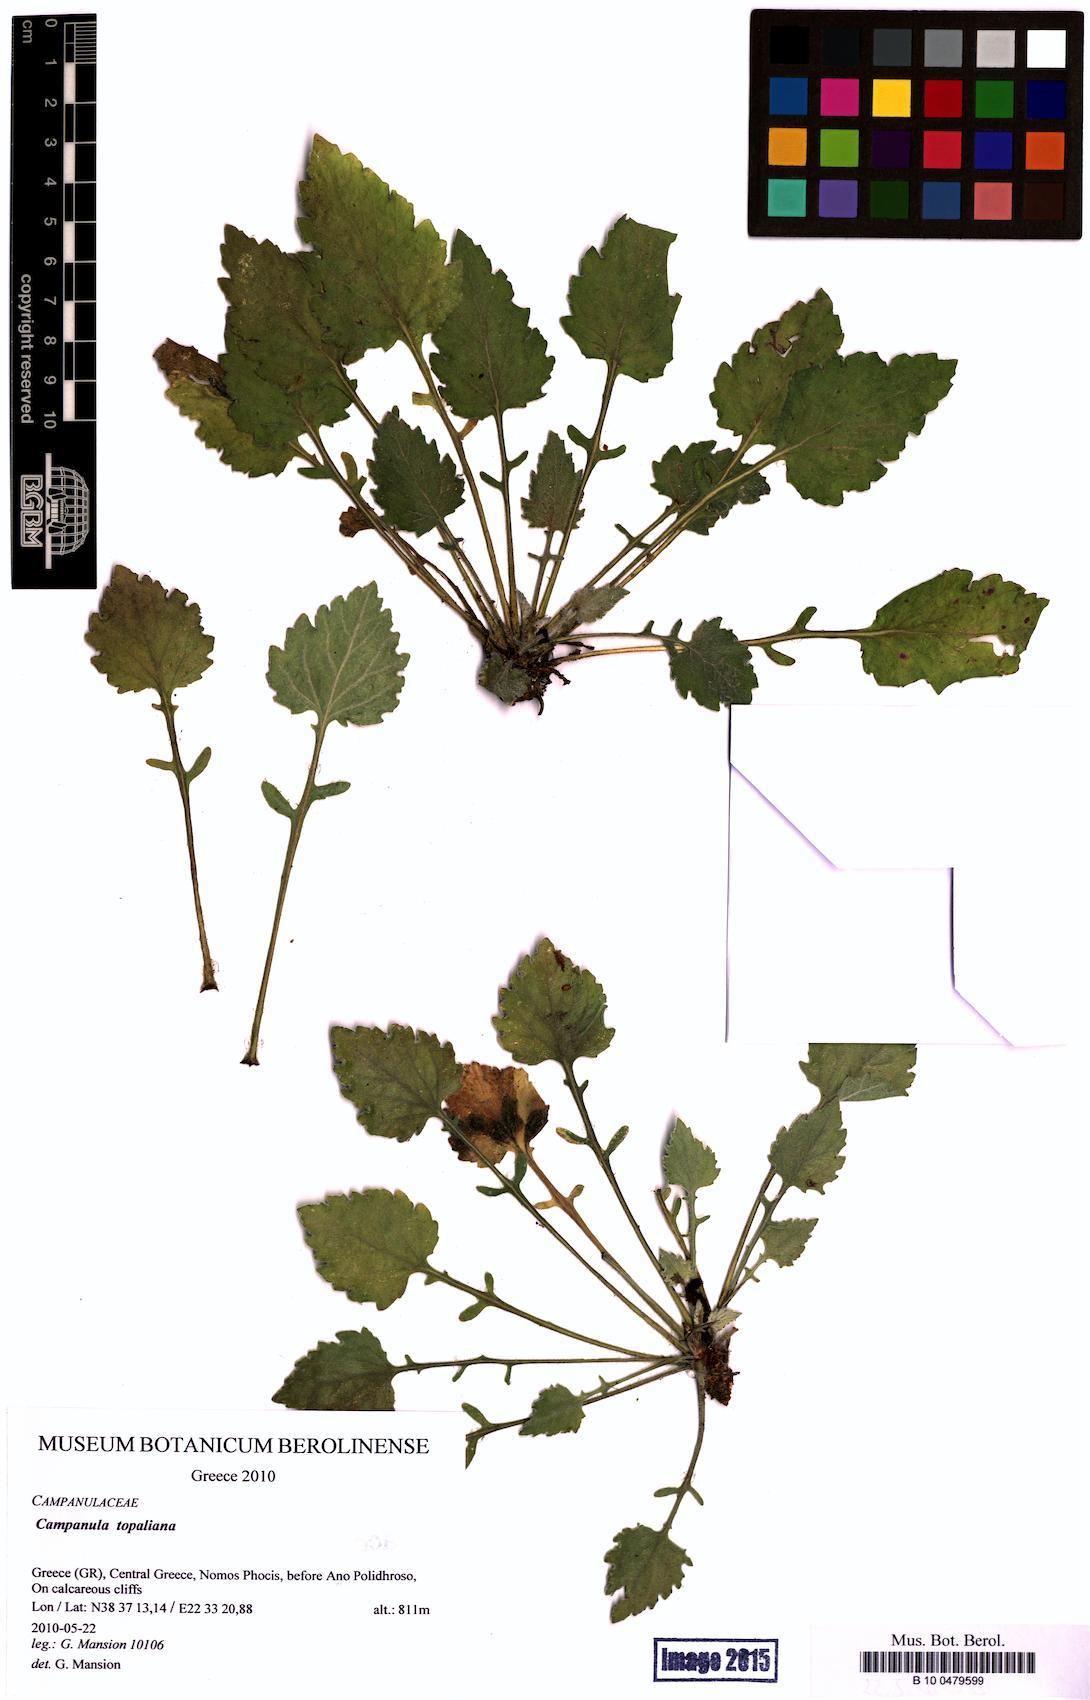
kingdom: Plantae
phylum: Tracheophyta
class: Magnoliopsida
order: Asterales
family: Campanulaceae
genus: Campanula
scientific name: Campanula topaliana
